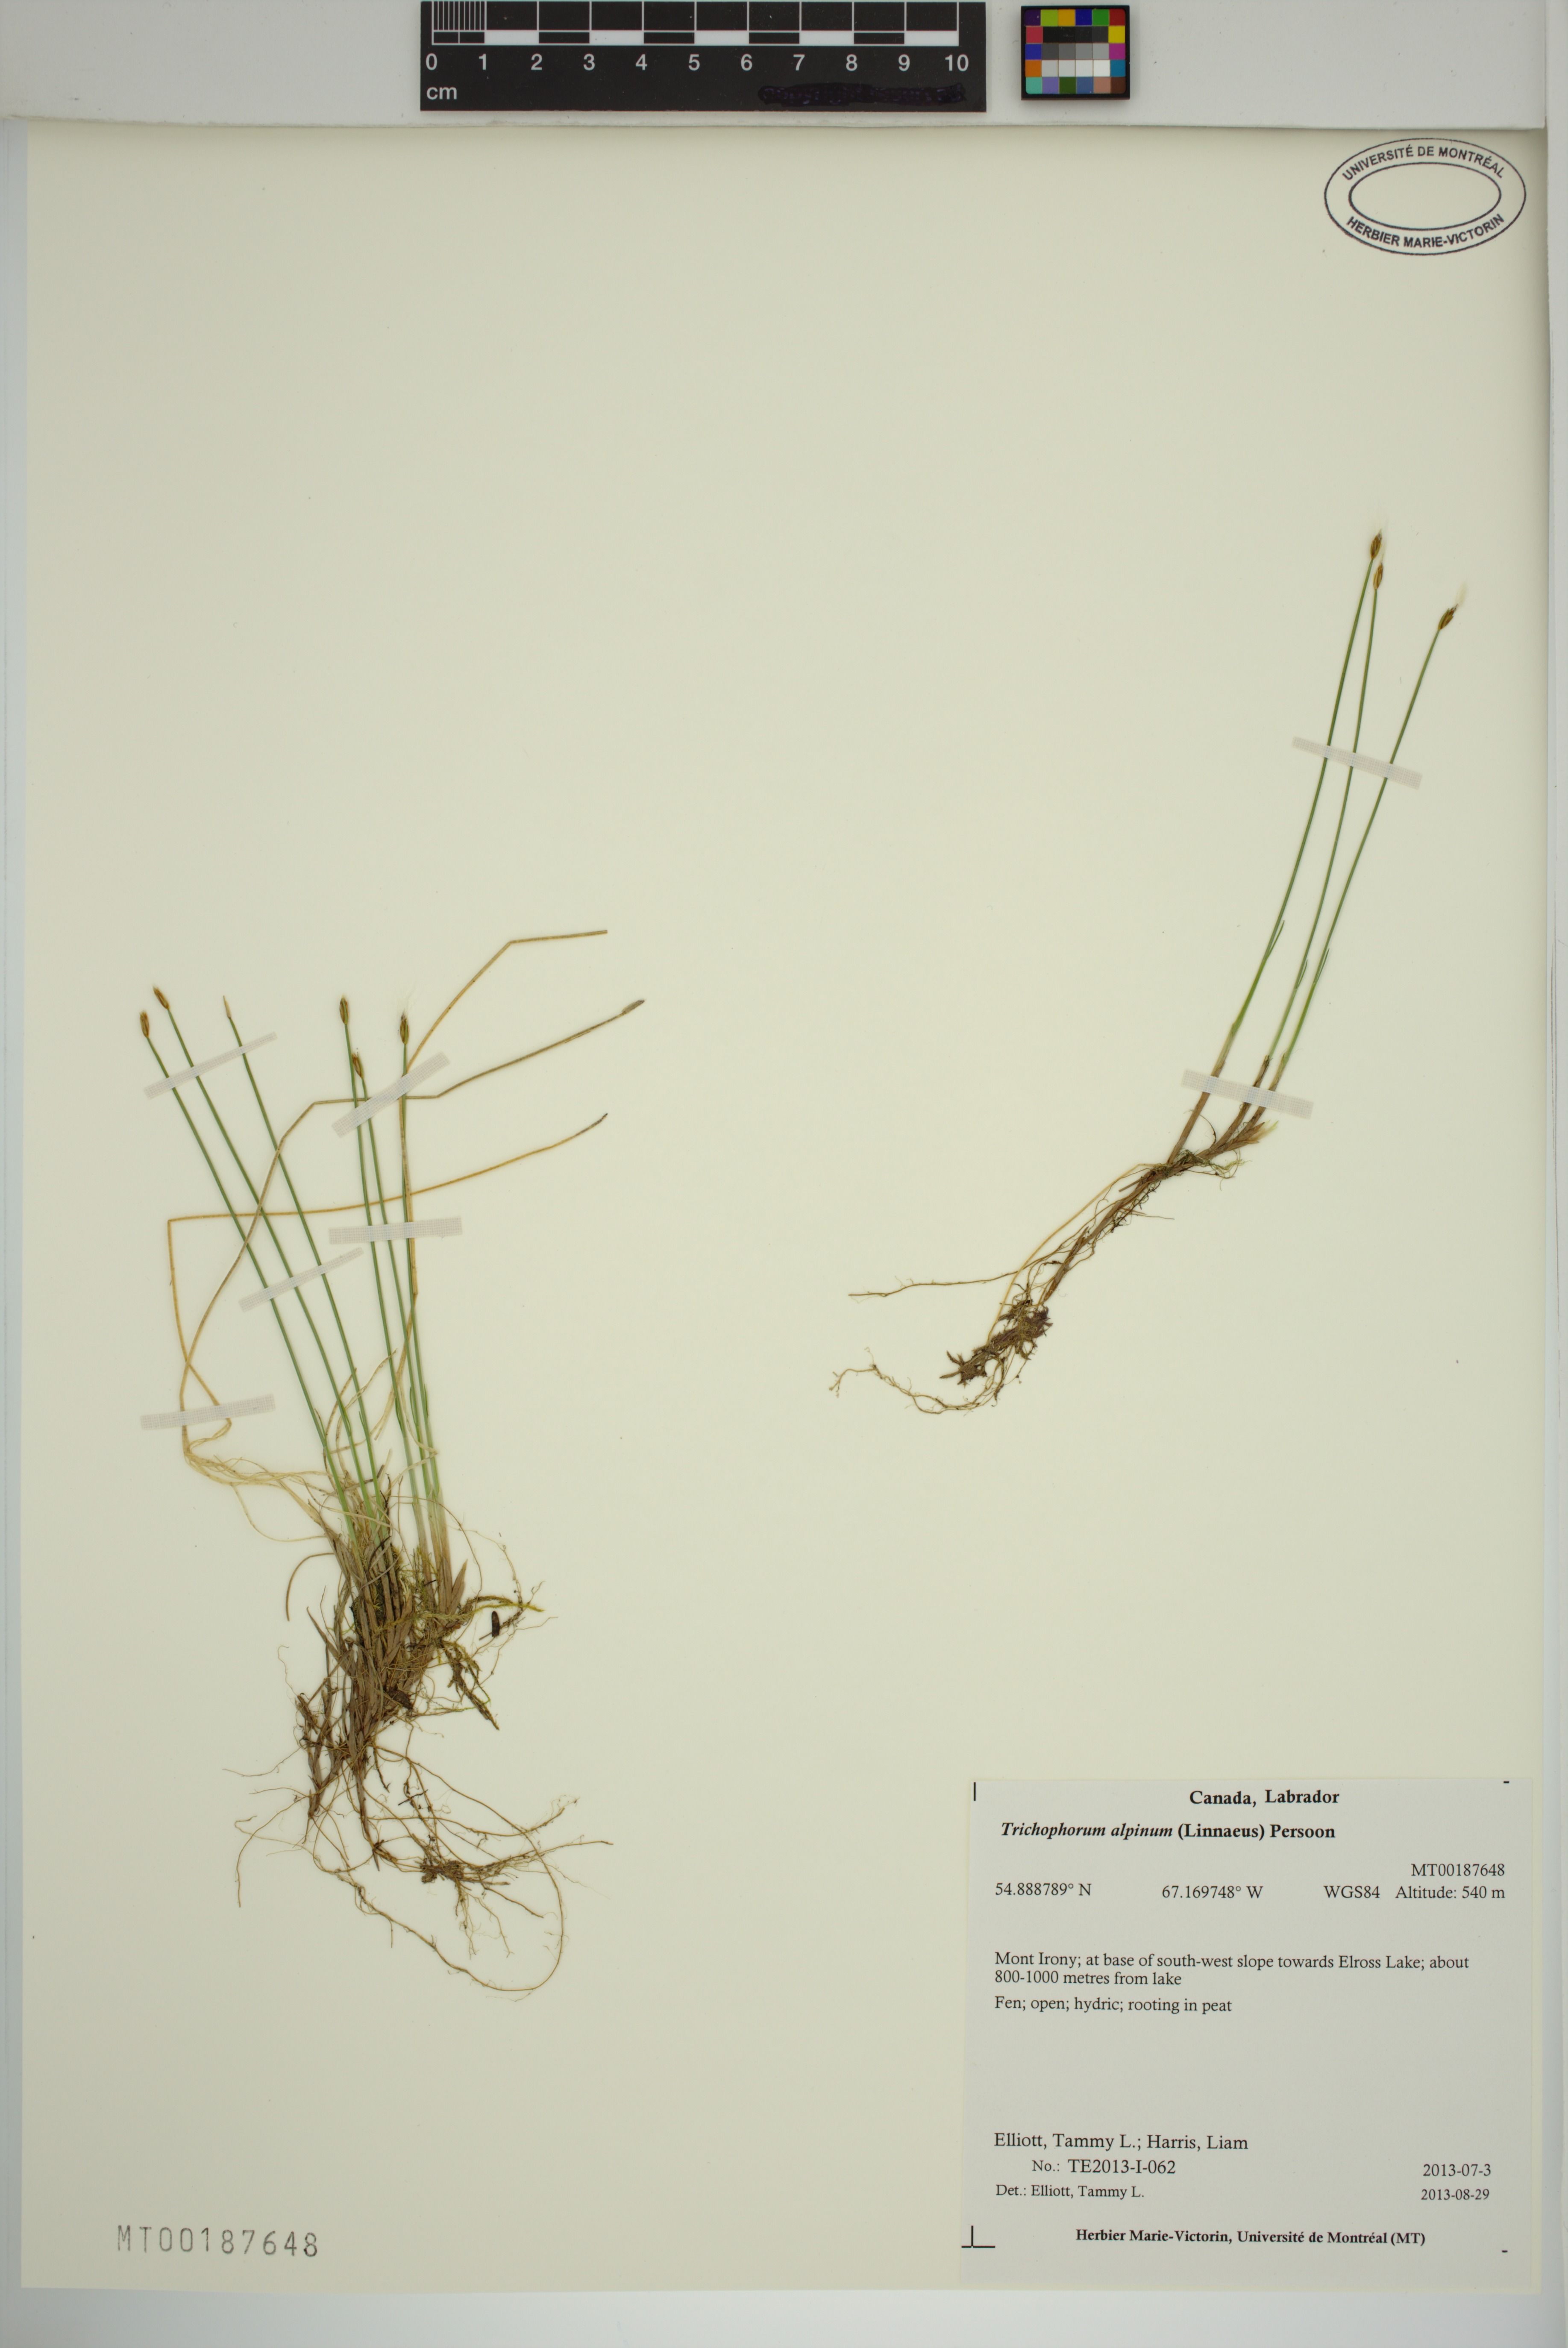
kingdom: Plantae
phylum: Tracheophyta
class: Liliopsida
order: Poales
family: Cyperaceae
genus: Trichophorum
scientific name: Trichophorum alpinum
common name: Alpine bulrush
